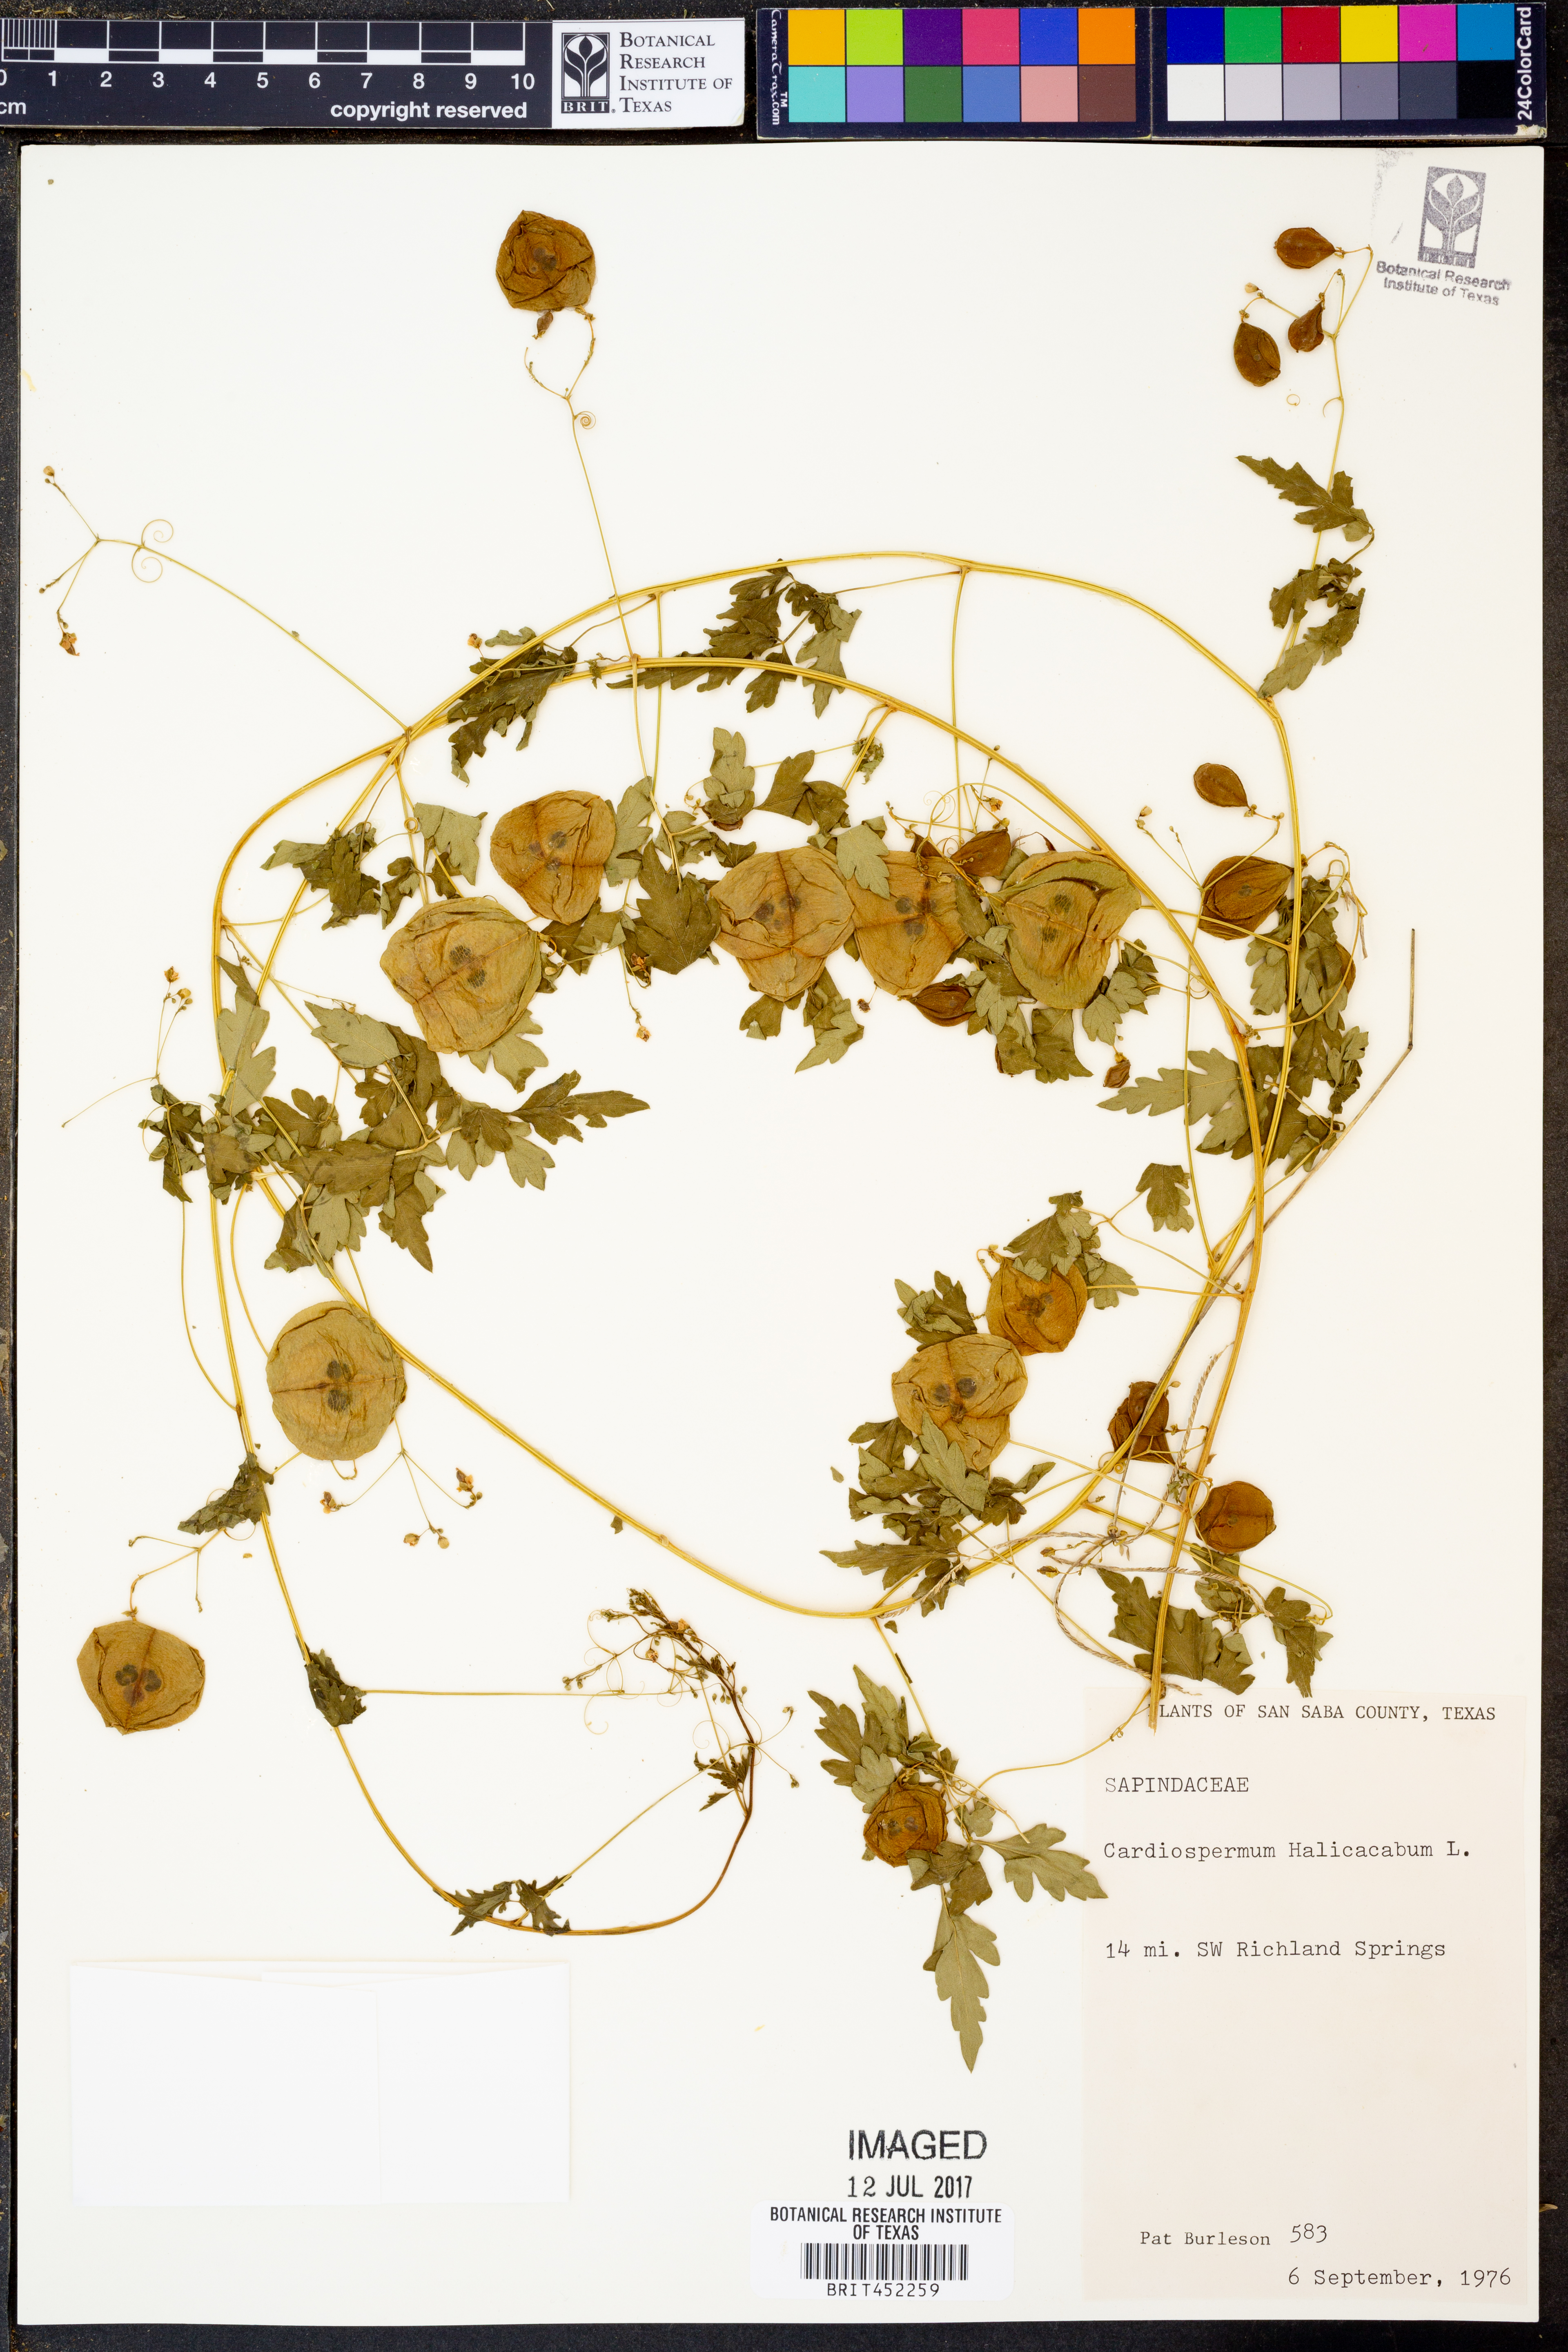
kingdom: Plantae
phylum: Tracheophyta
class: Magnoliopsida
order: Sapindales
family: Sapindaceae
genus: Cardiospermum
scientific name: Cardiospermum halicacabum
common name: Balloon vine
